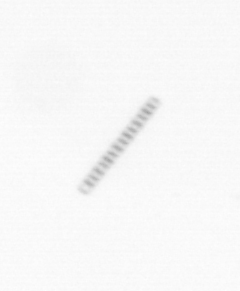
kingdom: Chromista
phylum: Ochrophyta
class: Bacillariophyceae
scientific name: Bacillariophyceae
